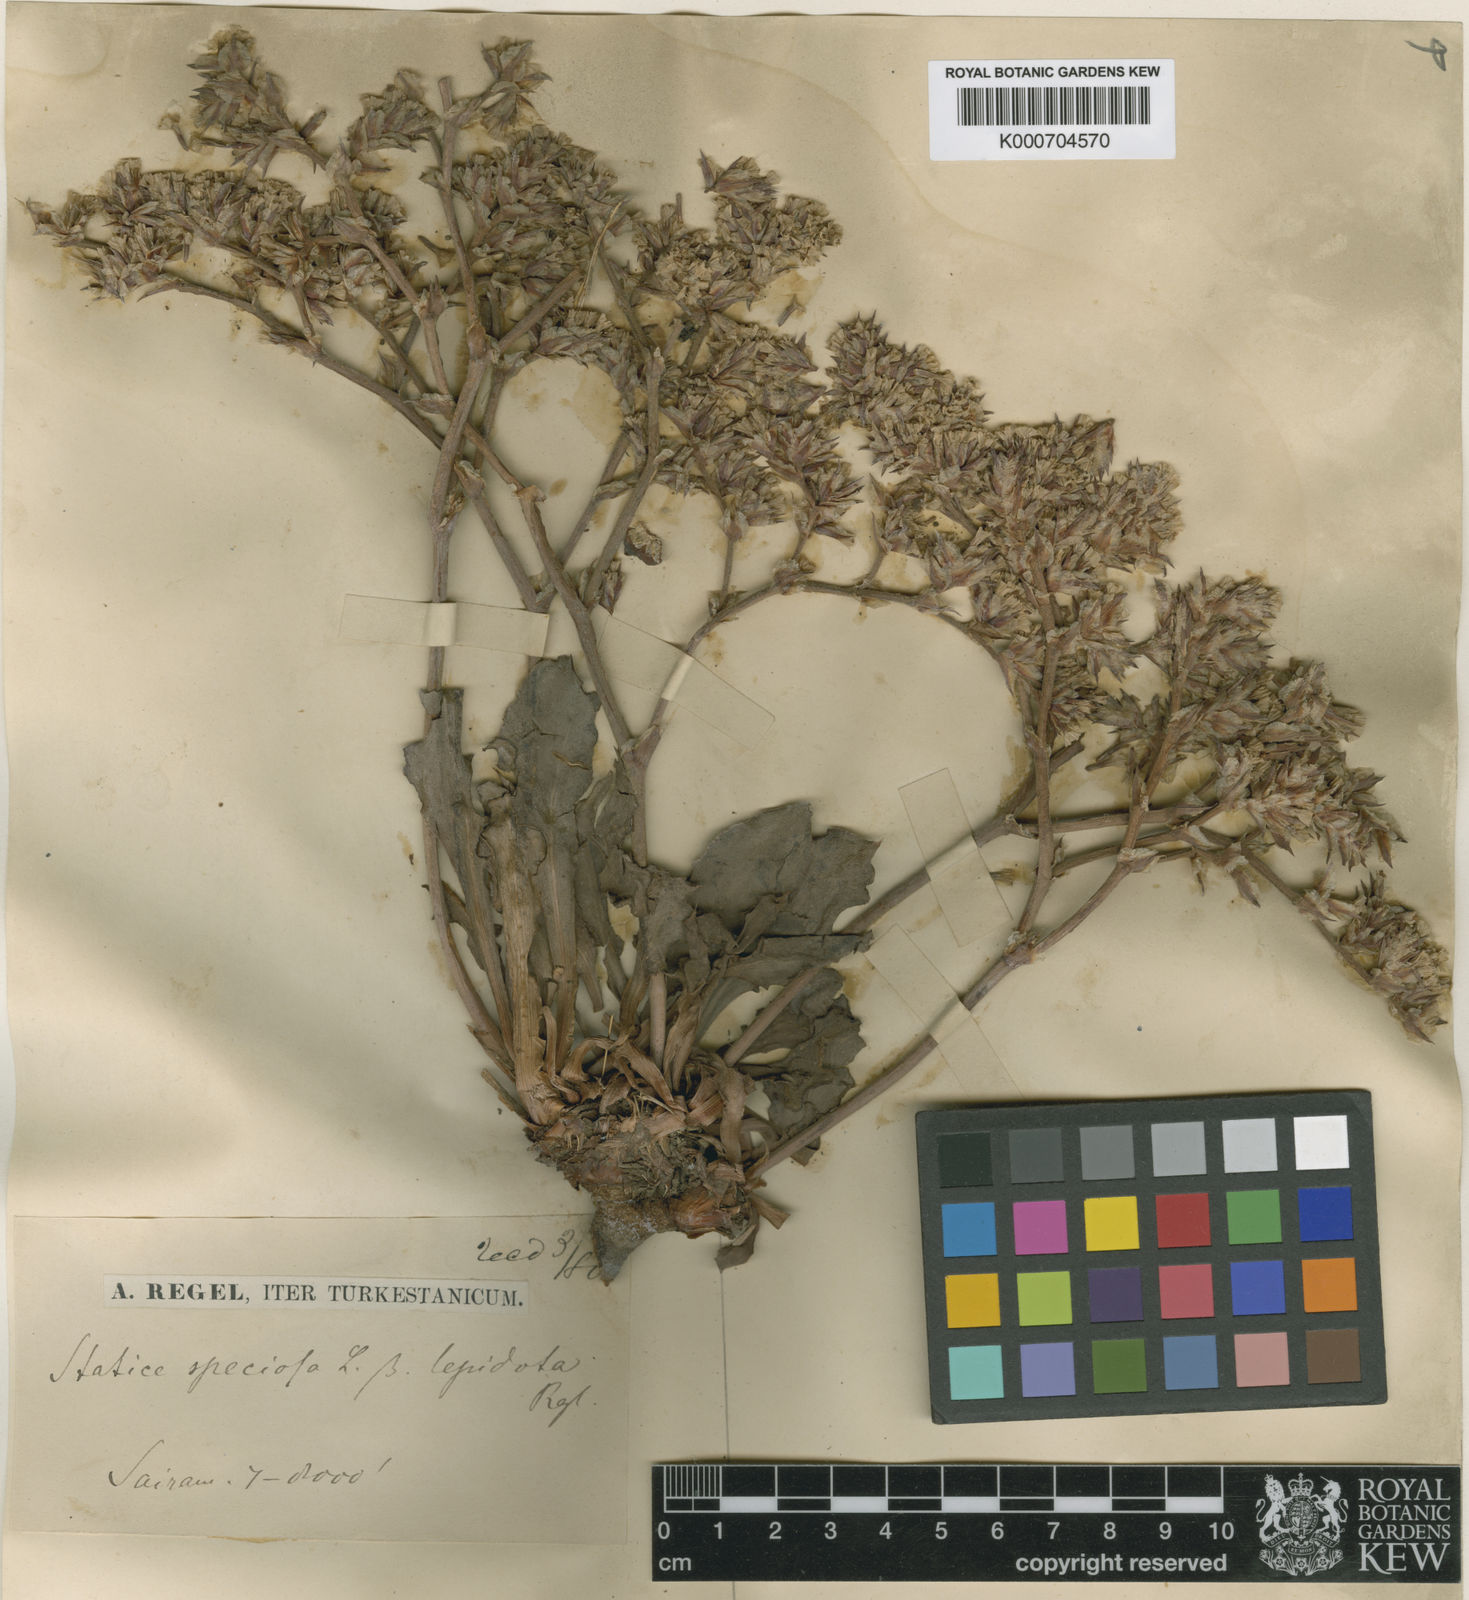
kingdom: Plantae
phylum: Tracheophyta
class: Magnoliopsida
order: Caryophyllales
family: Plumbaginaceae
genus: Goniolimon
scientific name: Goniolimon speciosum
